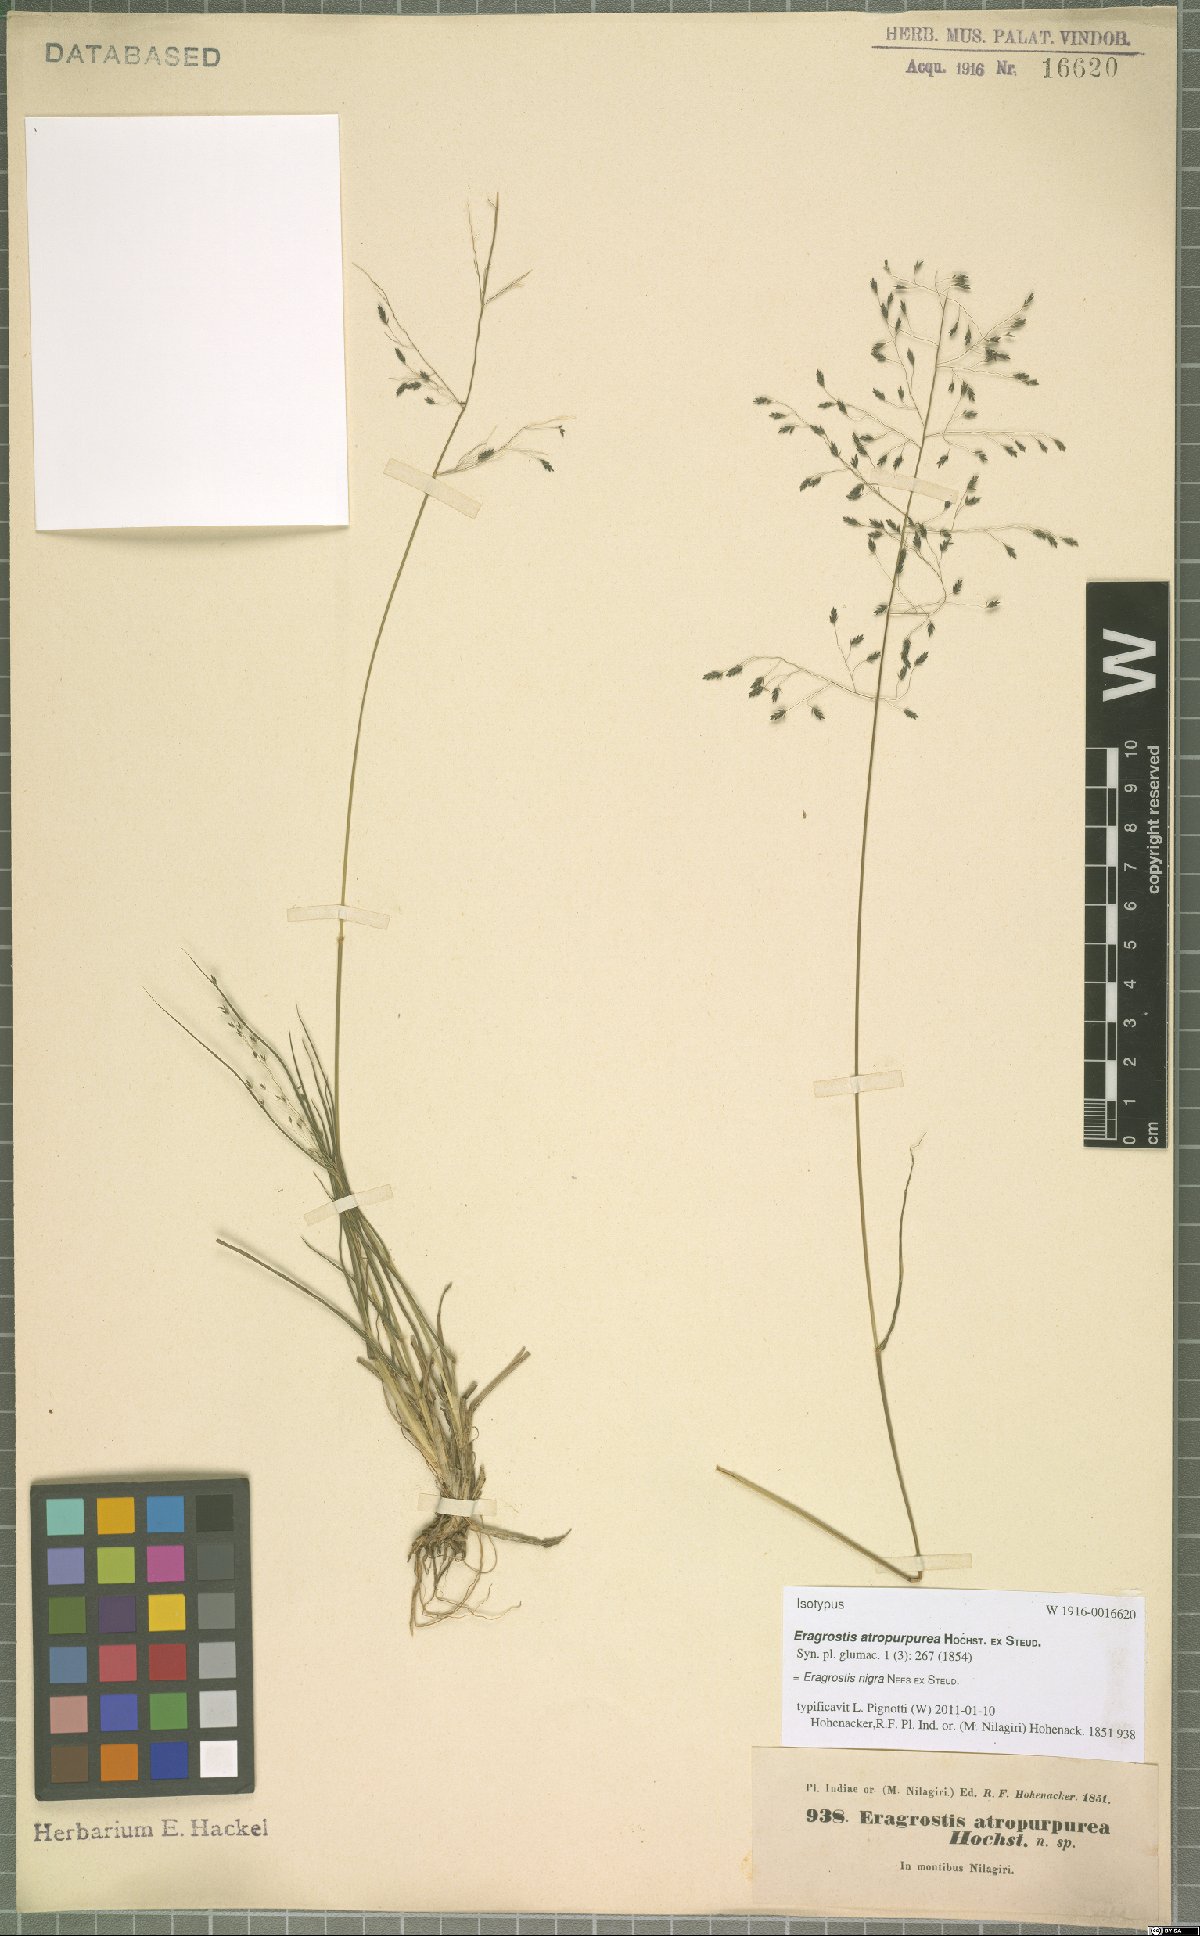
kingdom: Plantae
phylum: Tracheophyta
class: Liliopsida
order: Poales
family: Poaceae
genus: Eragrostis
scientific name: Eragrostis nigra
